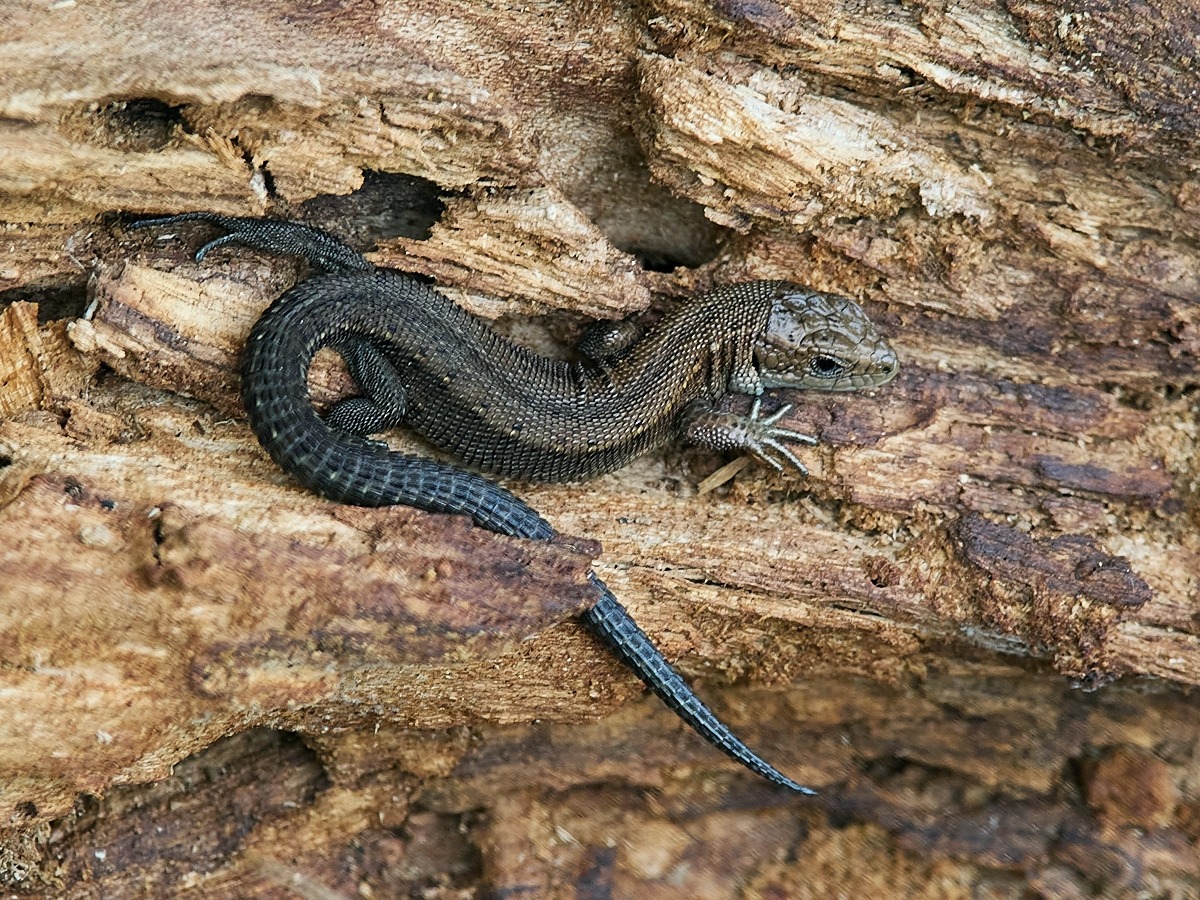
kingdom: Animalia
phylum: Chordata
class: Squamata
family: Lacertidae
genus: Zootoca
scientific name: Zootoca vivipara
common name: Skovfirben
